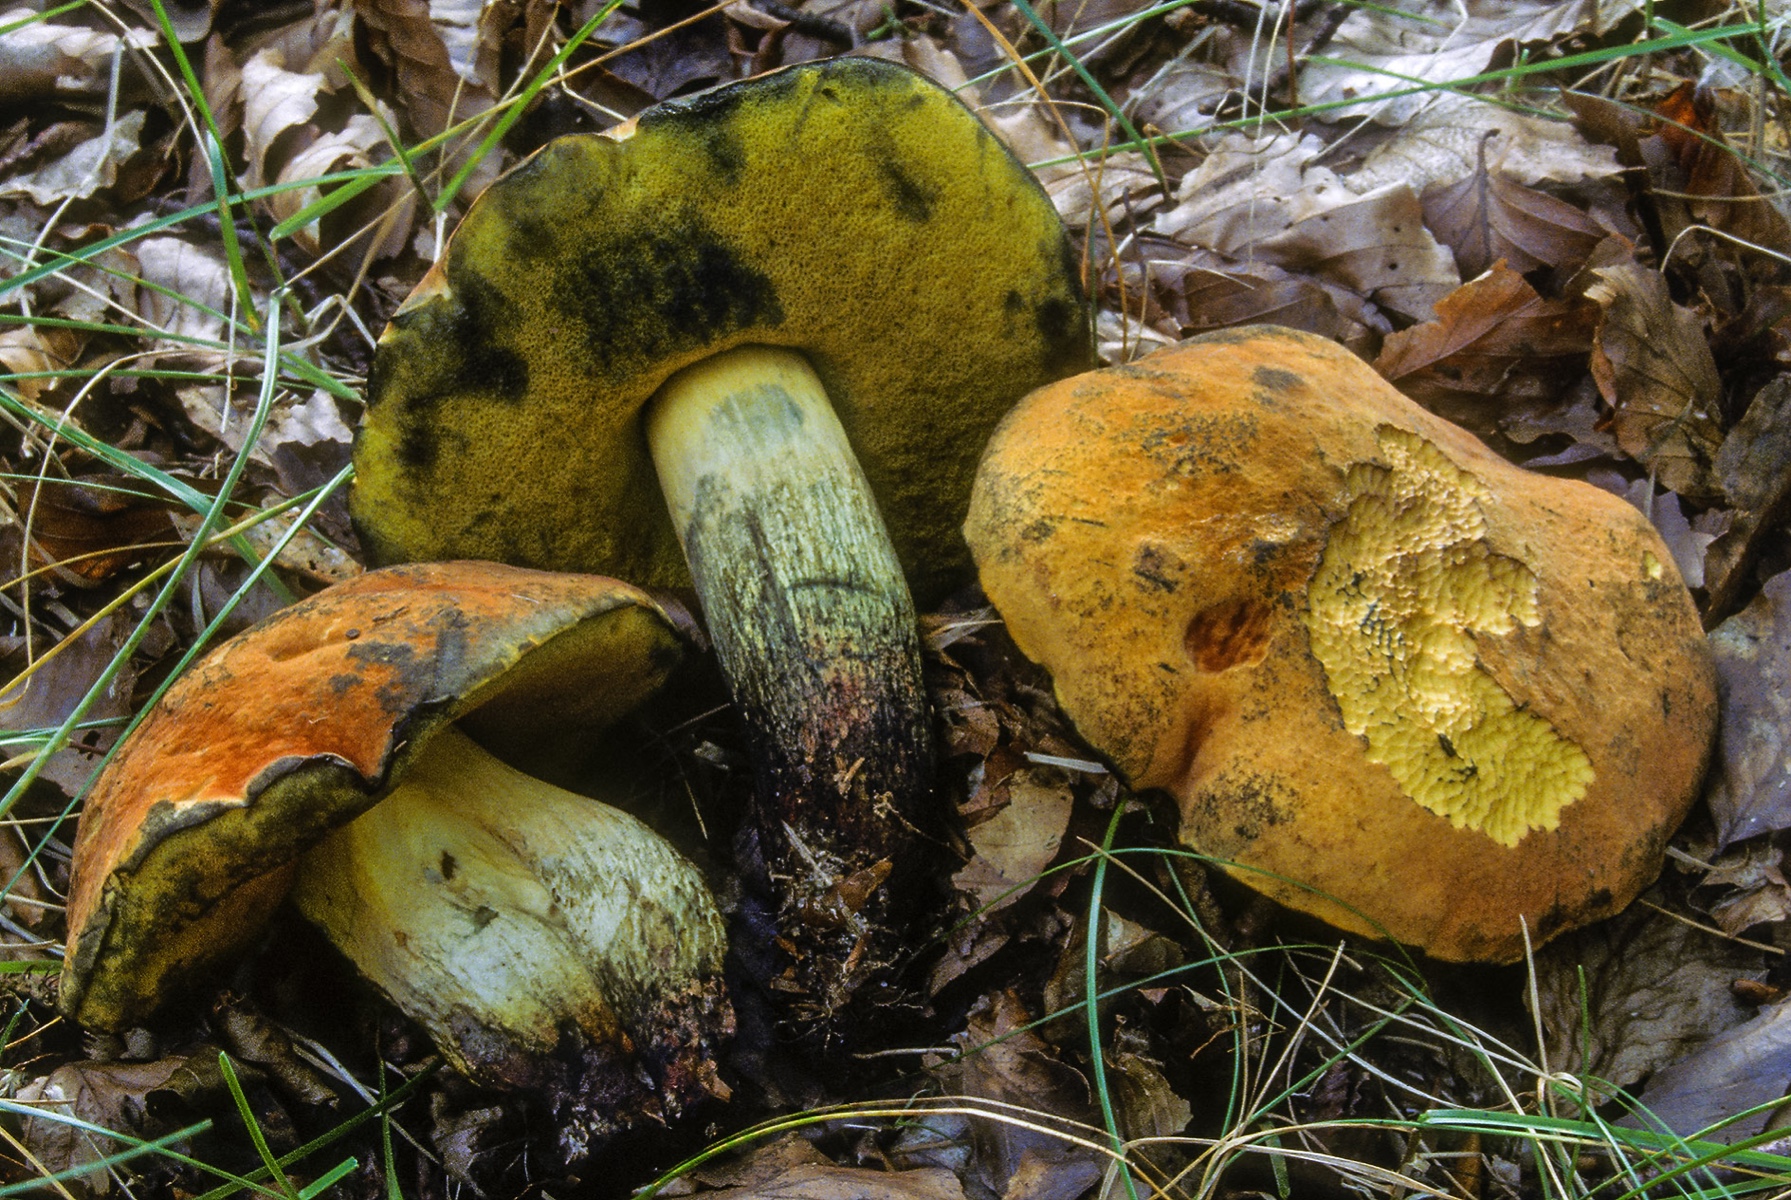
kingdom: Fungi
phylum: Basidiomycota
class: Agaricomycetes
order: Boletales
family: Boletaceae
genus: Suillellus
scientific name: Suillellus queletii
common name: glatstokket indigorørhat
